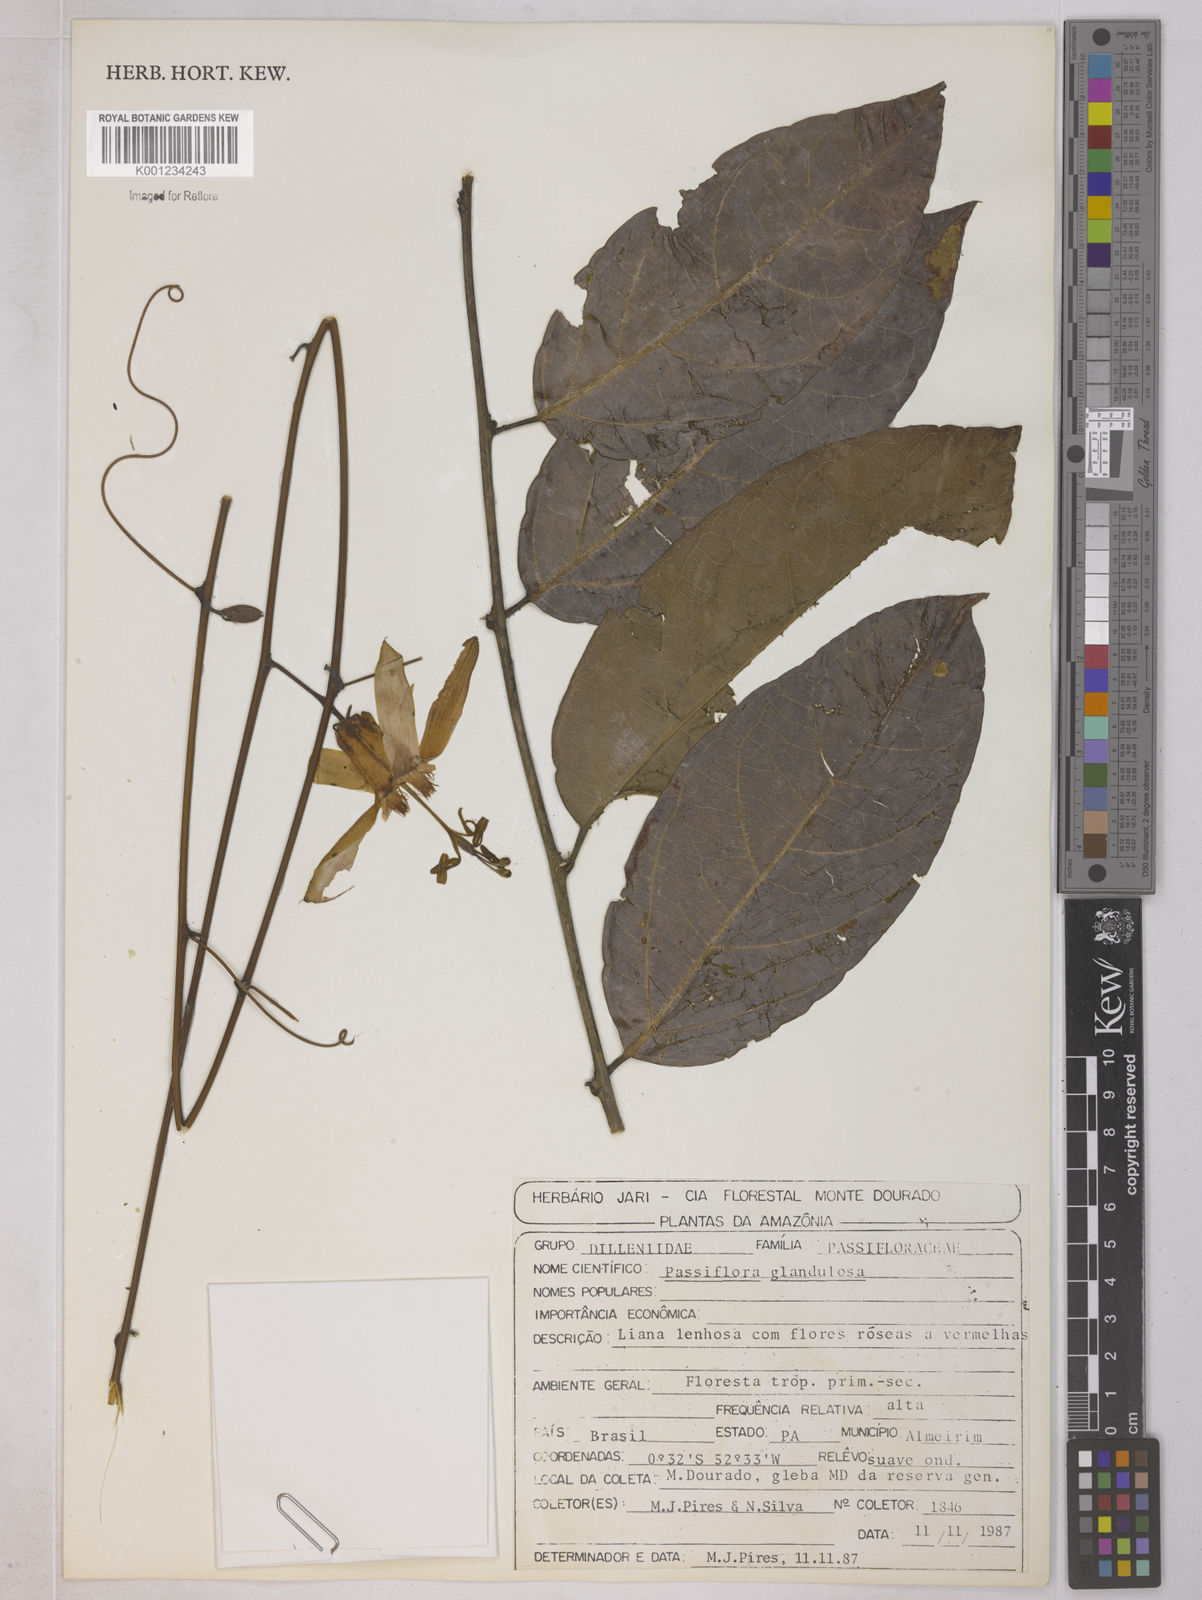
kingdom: Plantae
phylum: Tracheophyta
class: Magnoliopsida
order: Malpighiales
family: Passifloraceae
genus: Passiflora
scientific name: Passiflora glandulosa
